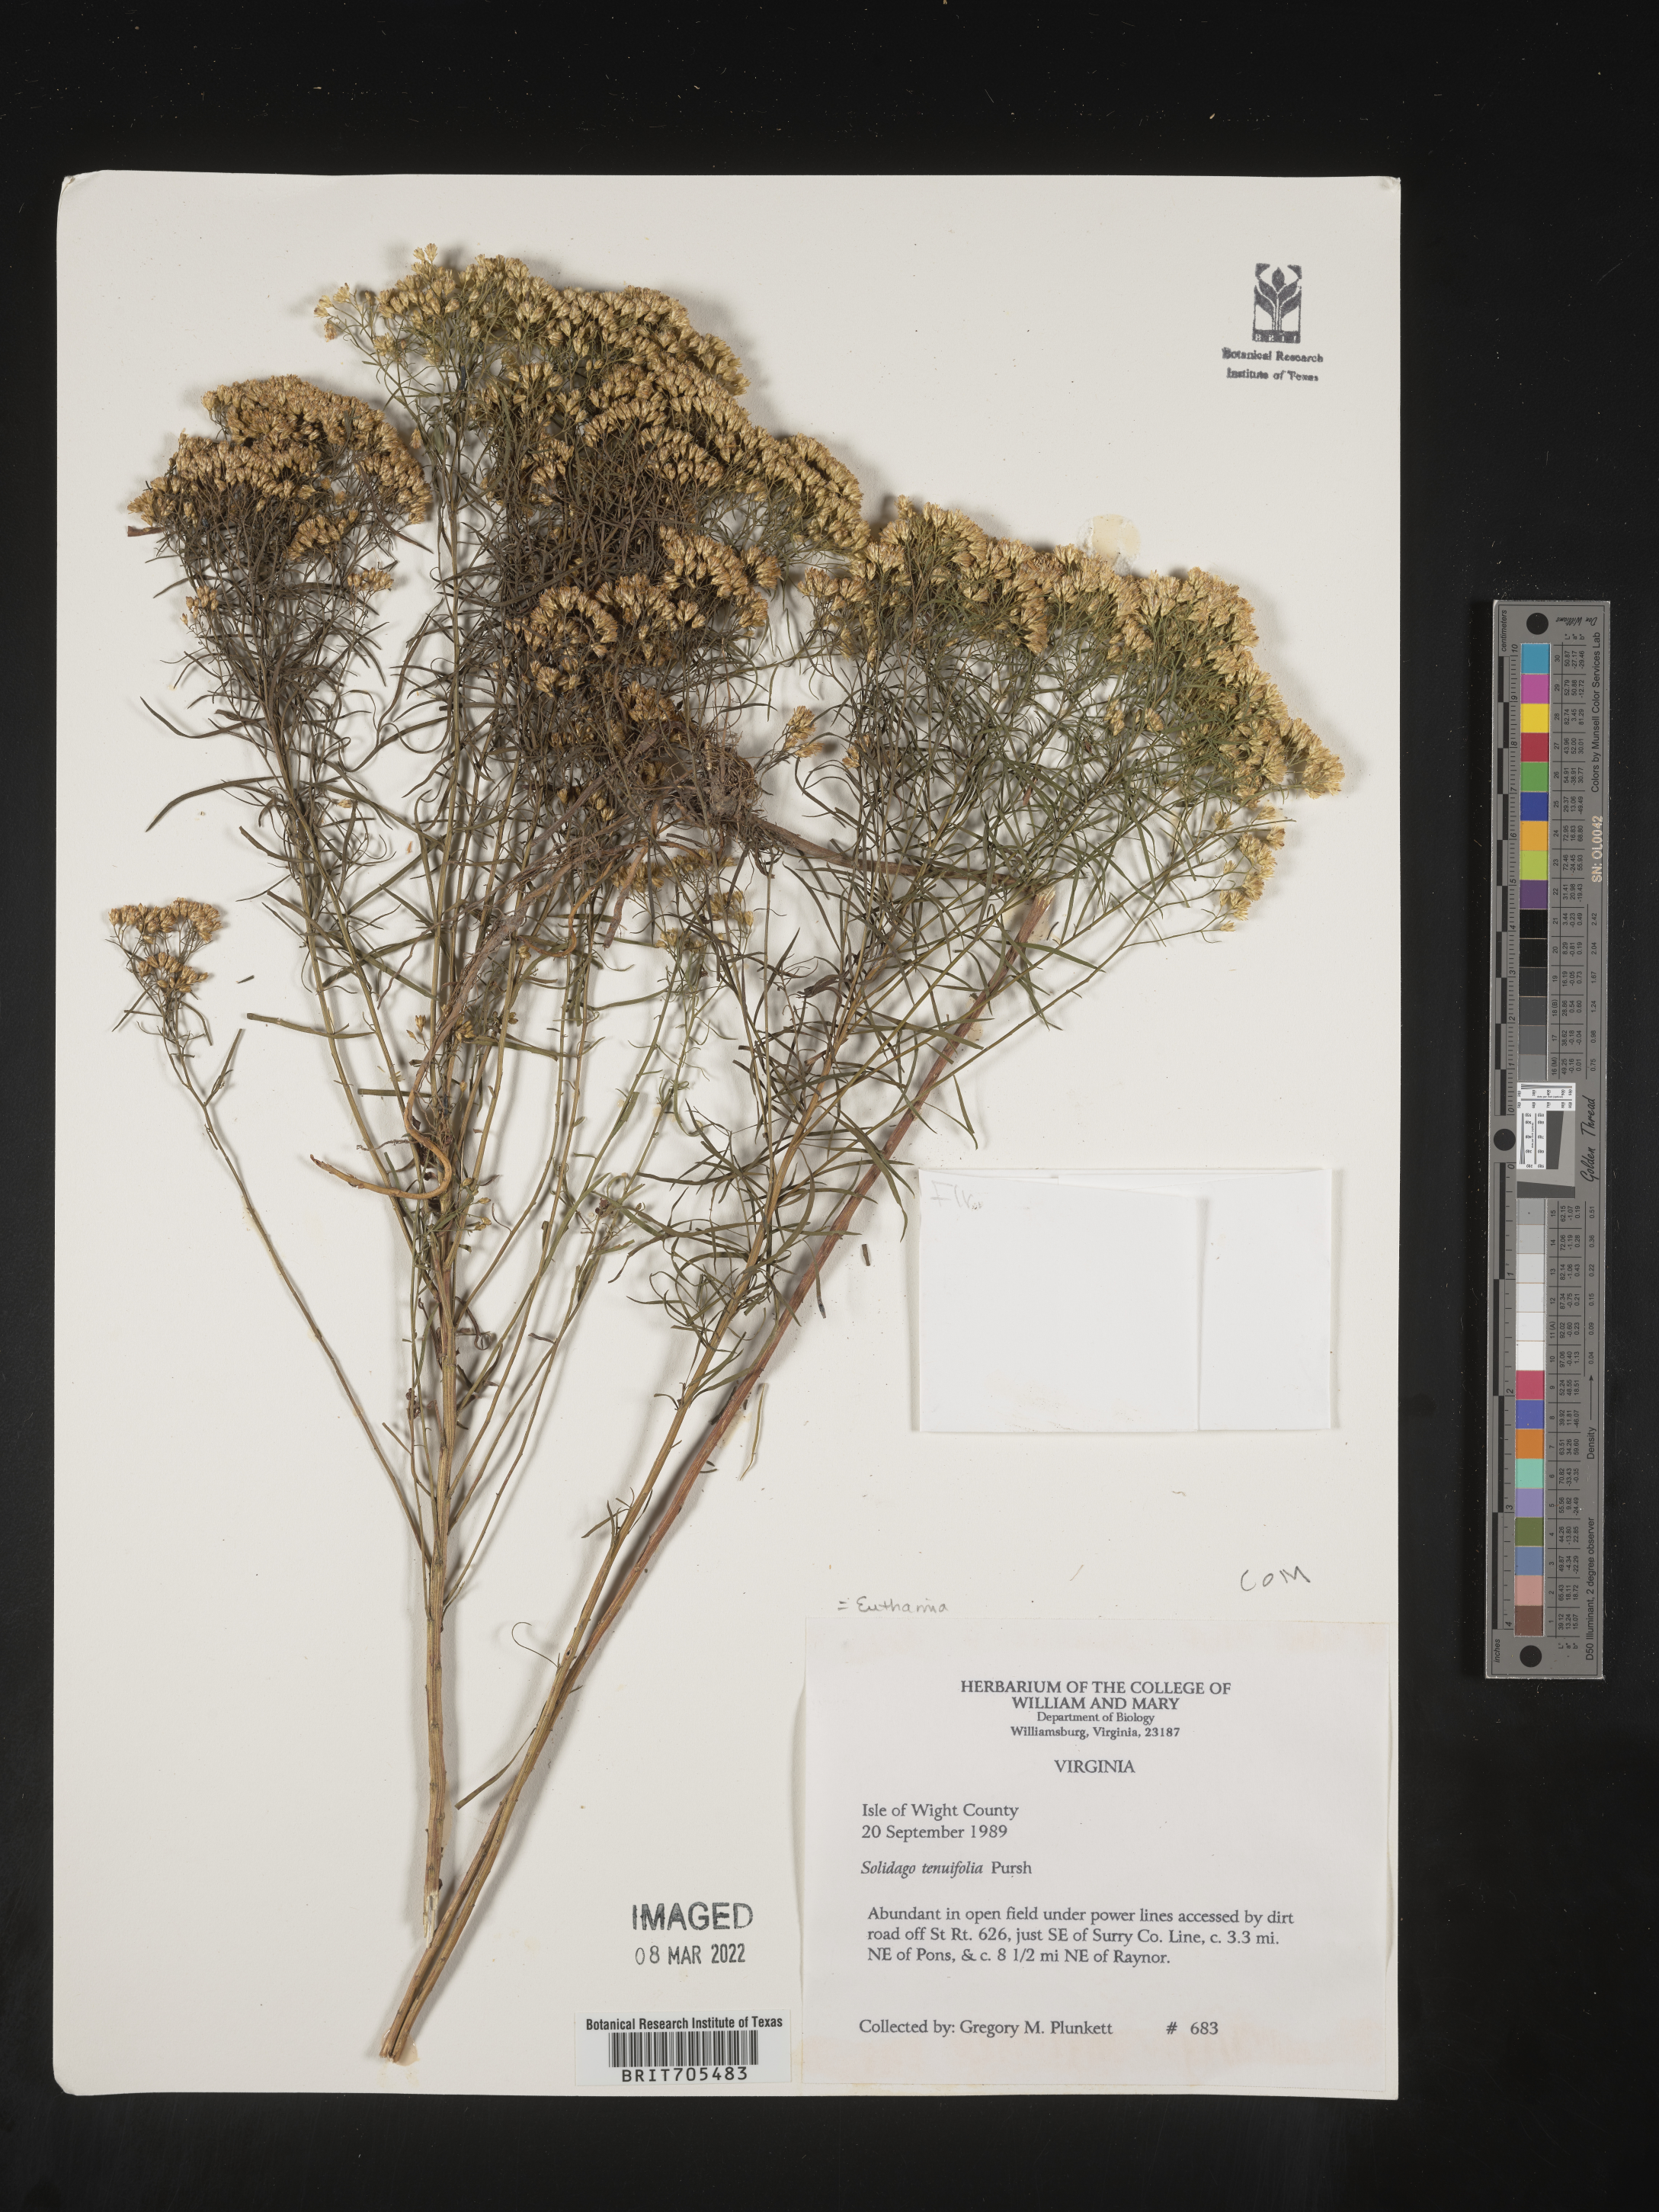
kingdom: Plantae
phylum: Tracheophyta
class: Magnoliopsida
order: Asterales
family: Asteraceae
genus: Euthamia
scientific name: Euthamia caroliniana
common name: Coastal plain goldentop
